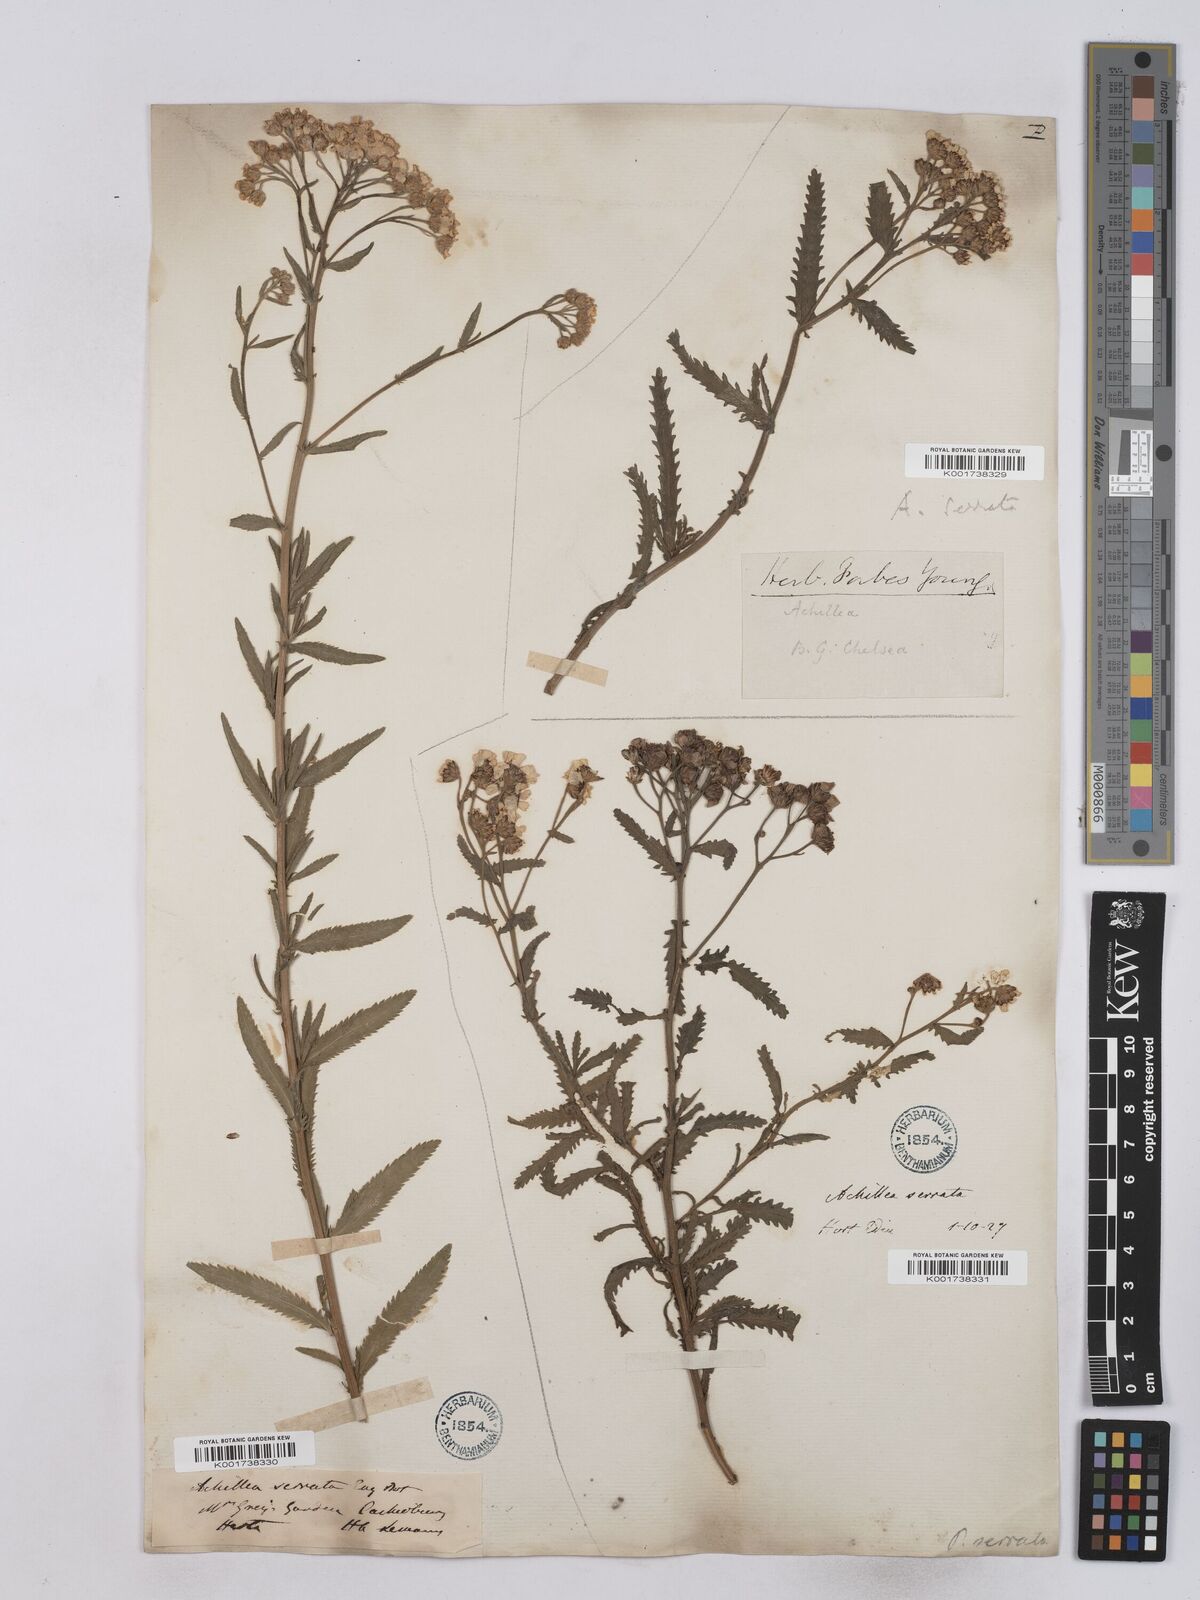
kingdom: Plantae
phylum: Tracheophyta
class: Magnoliopsida
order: Asterales
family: Asteraceae
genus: Achillea
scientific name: Achillea serrata
